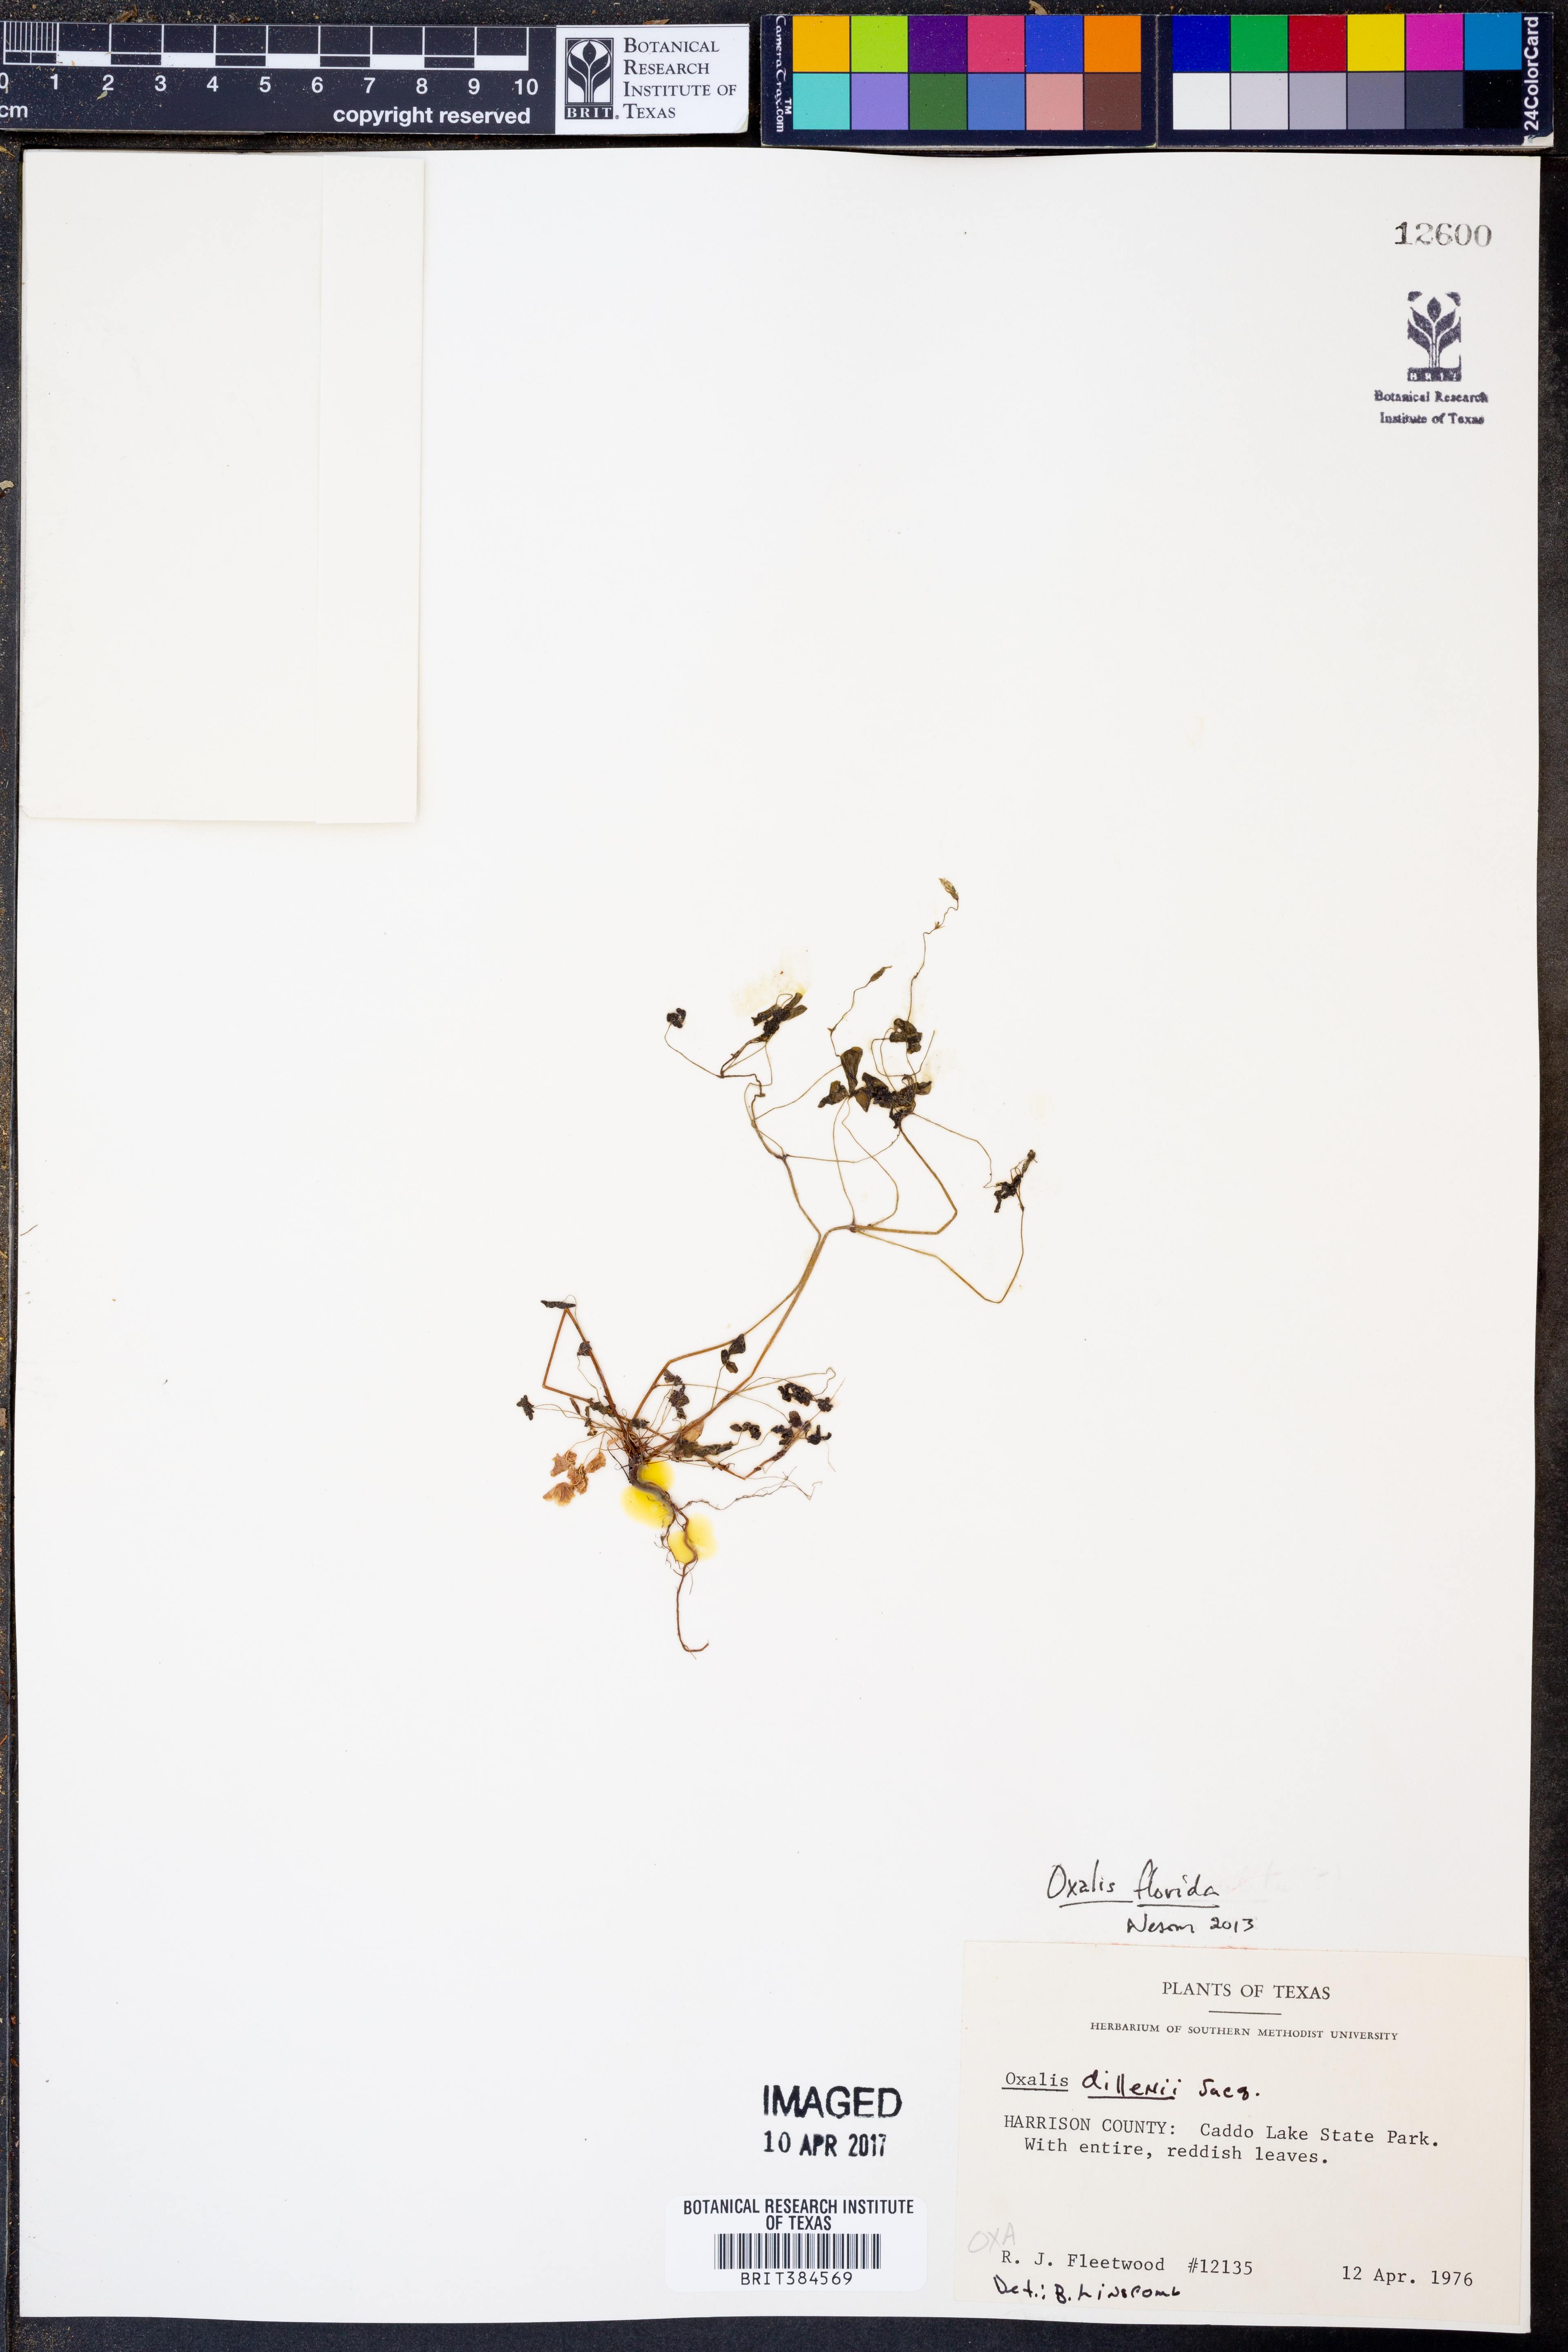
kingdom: Plantae
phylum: Tracheophyta
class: Magnoliopsida
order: Oxalidales
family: Oxalidaceae
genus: Oxalis
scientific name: Oxalis florida
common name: Flowering yellow woodsorrel
